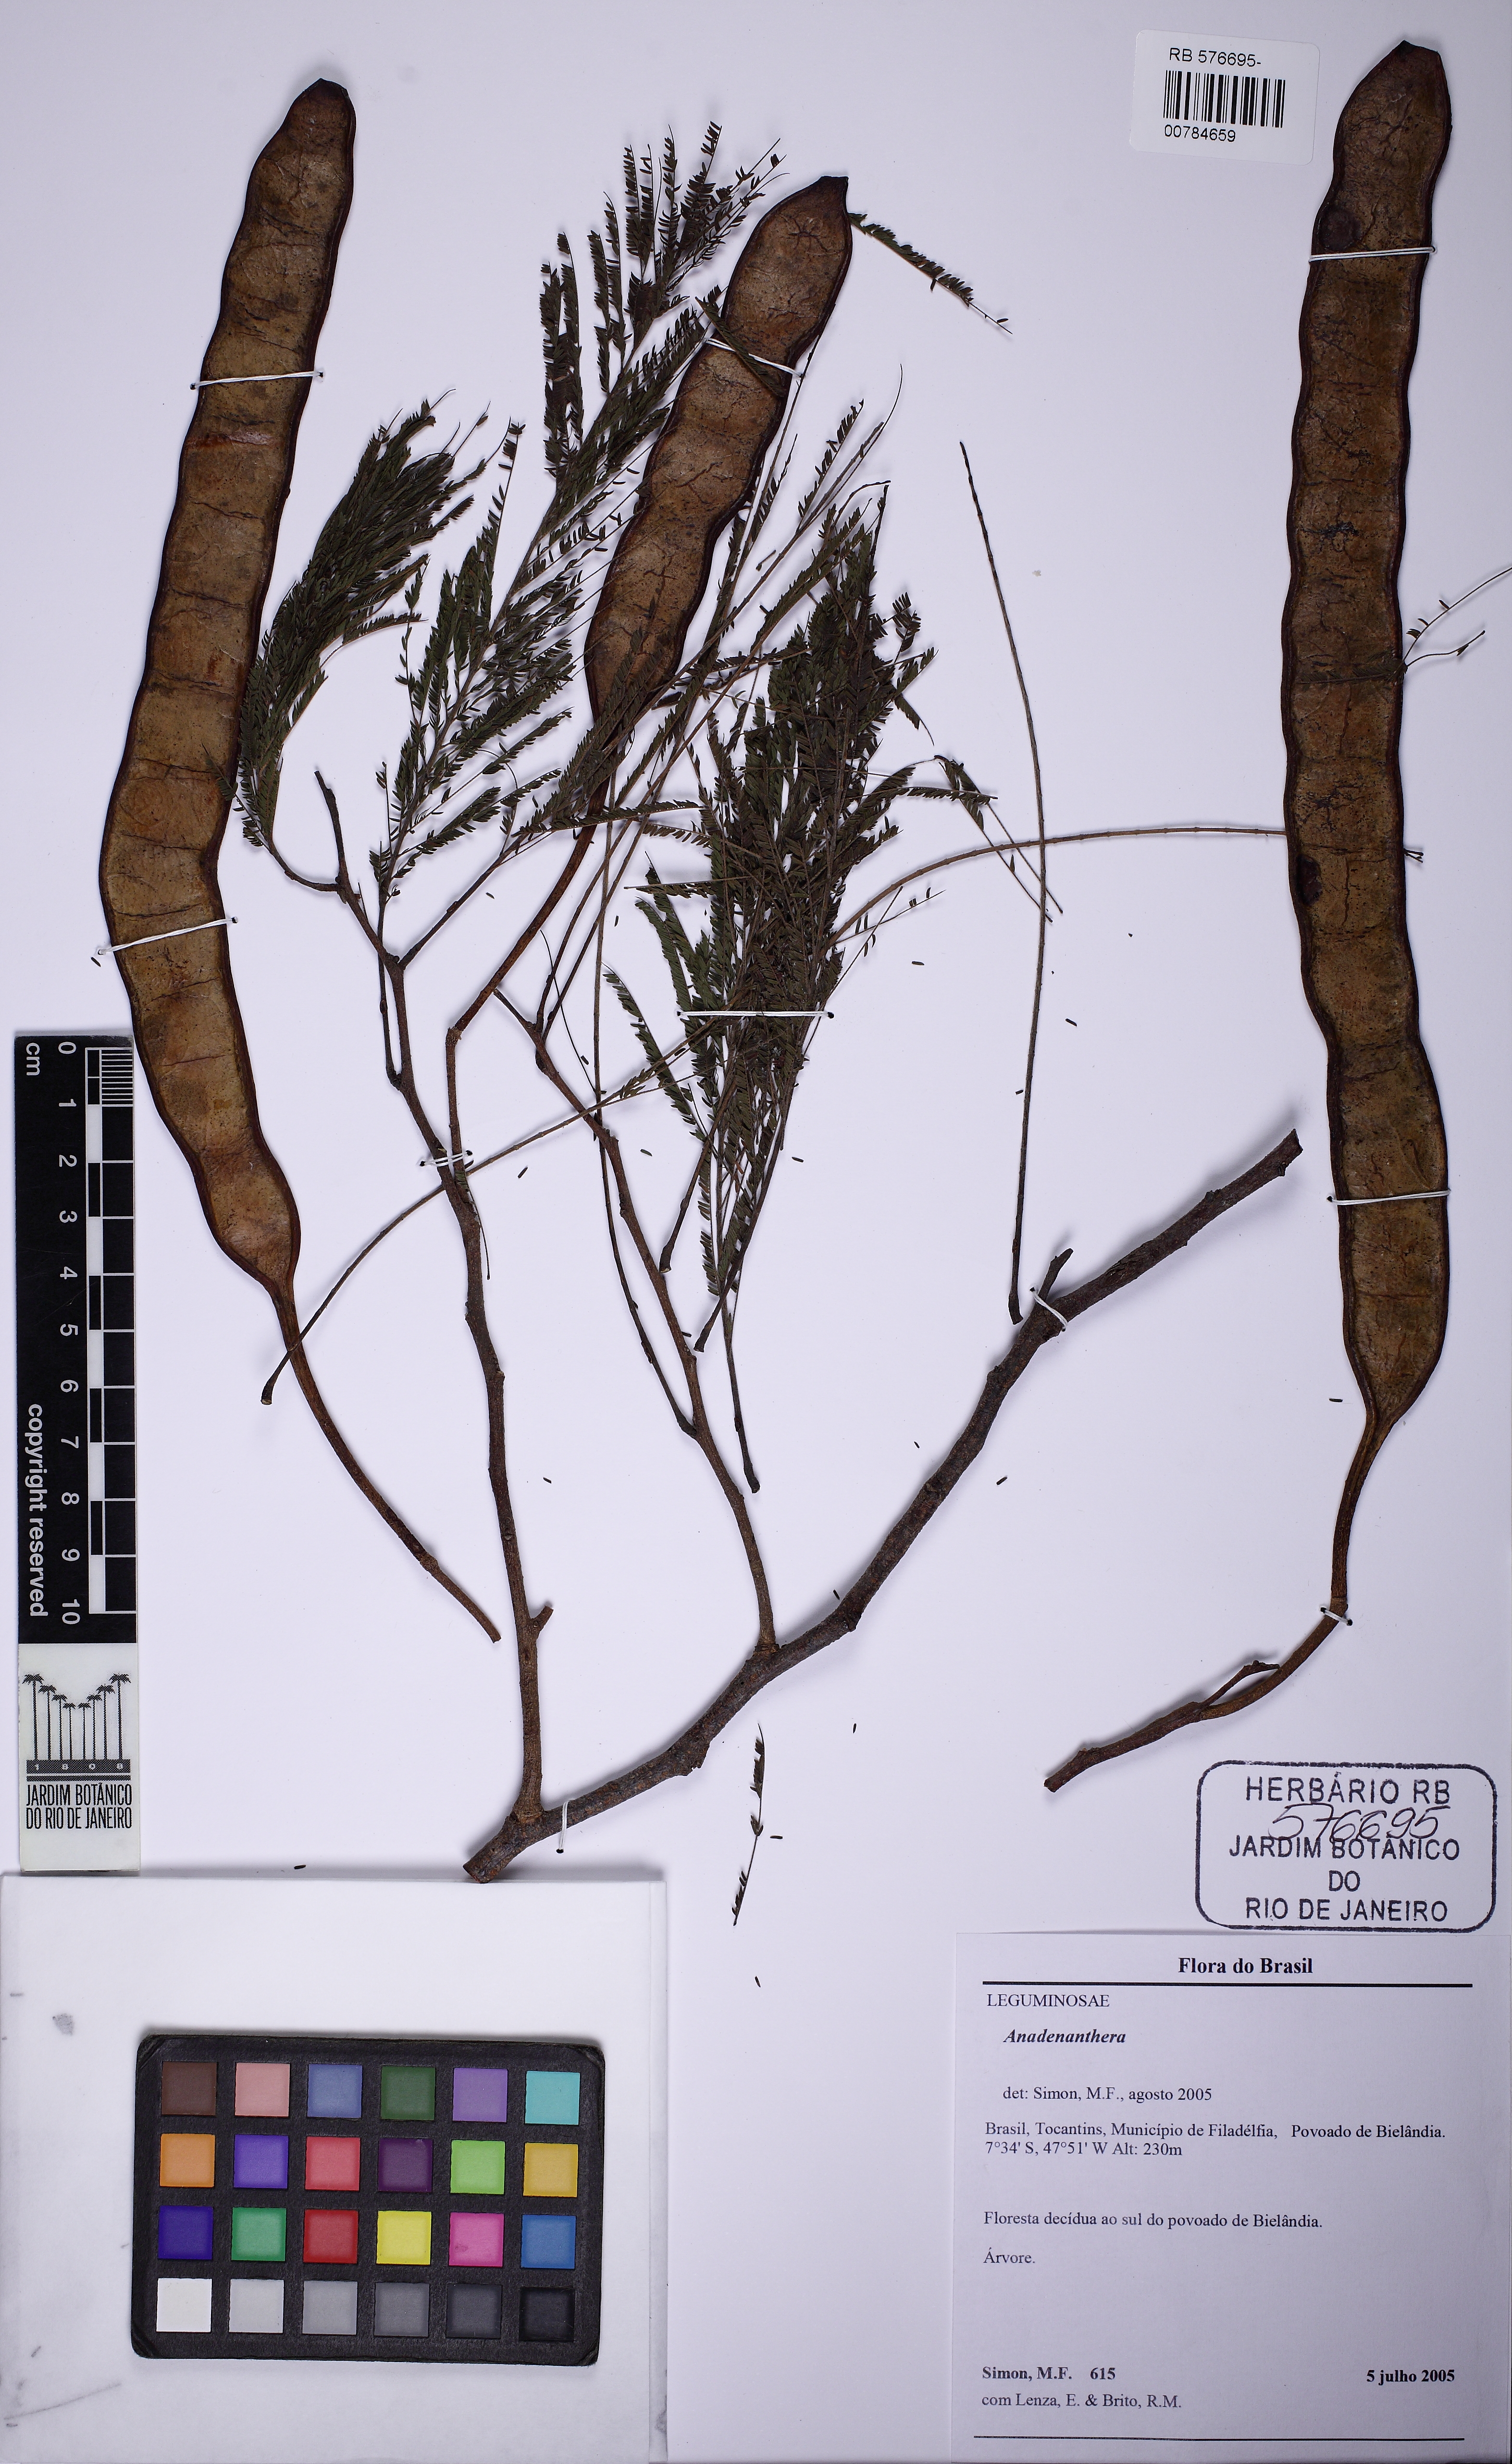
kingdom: Plantae
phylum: Tracheophyta
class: Magnoliopsida
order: Fabales
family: Fabaceae
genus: Anadenanthera
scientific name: Anadenanthera peregrina
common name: Cohoba
